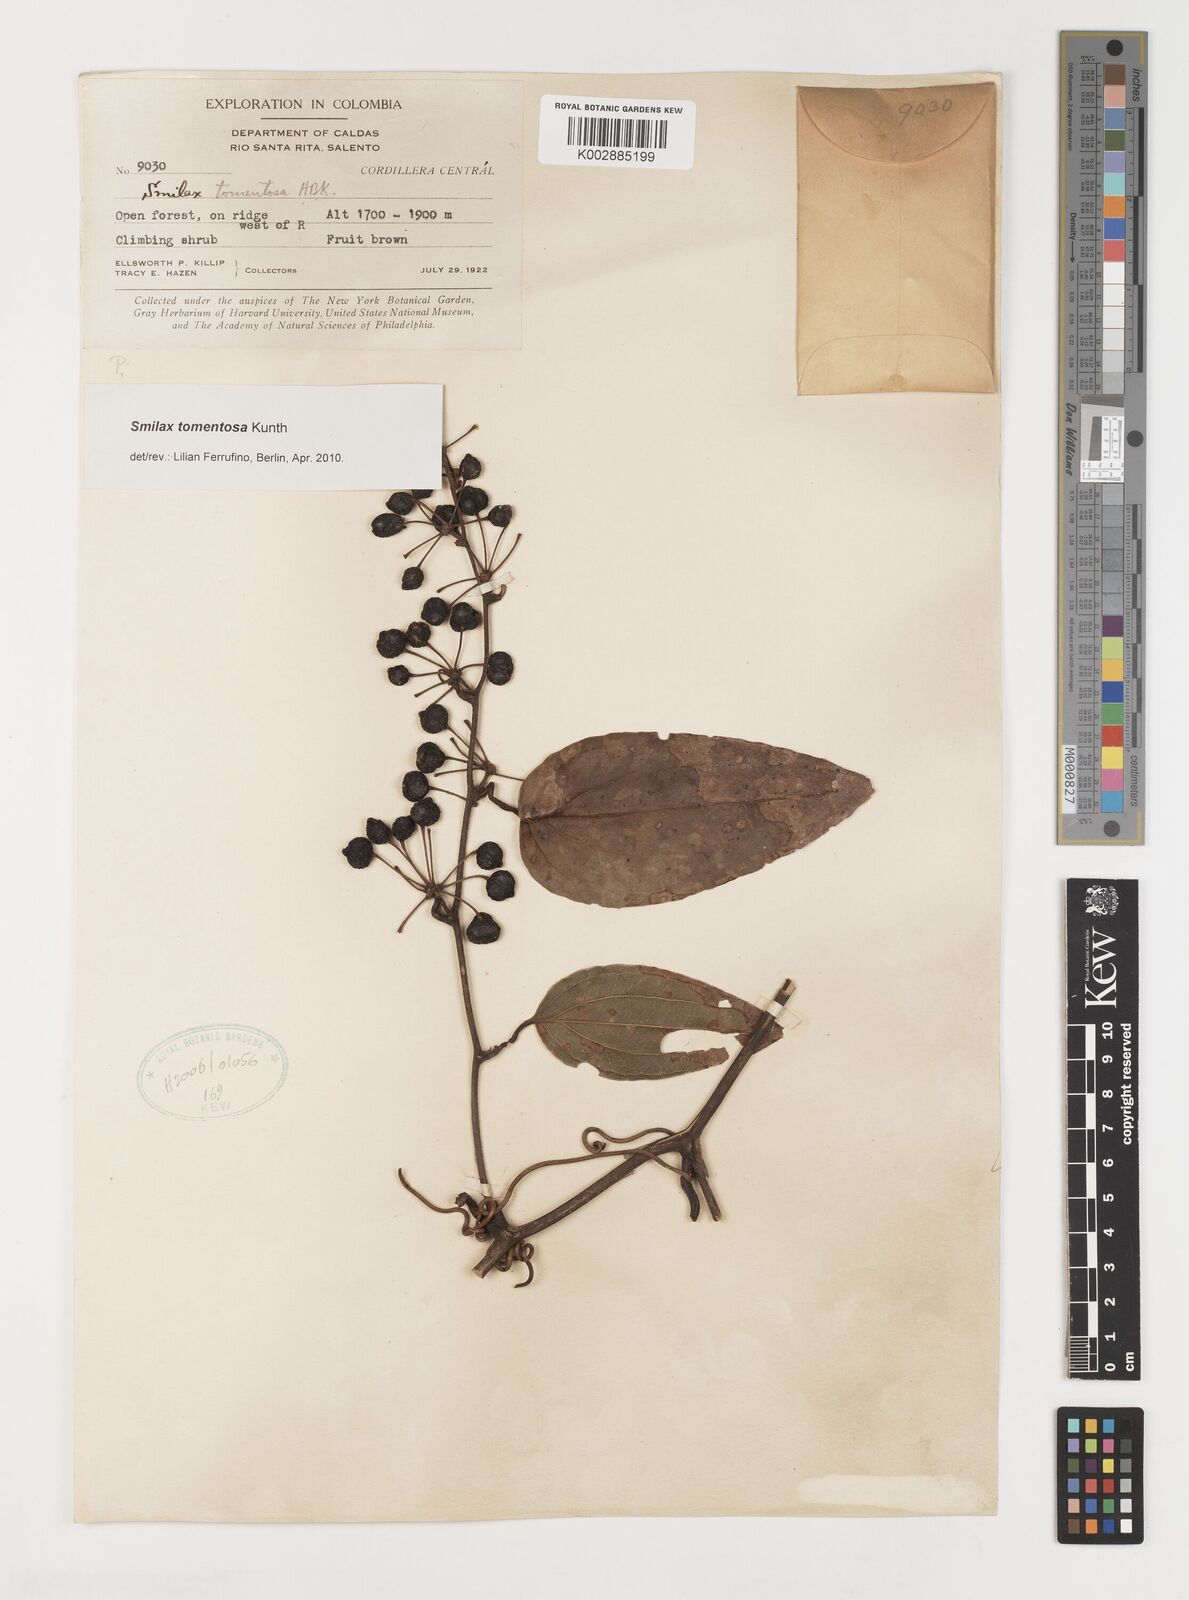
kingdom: Plantae
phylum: Tracheophyta
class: Liliopsida
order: Liliales
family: Smilacaceae
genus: Smilax
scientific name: Smilax tomentosa
